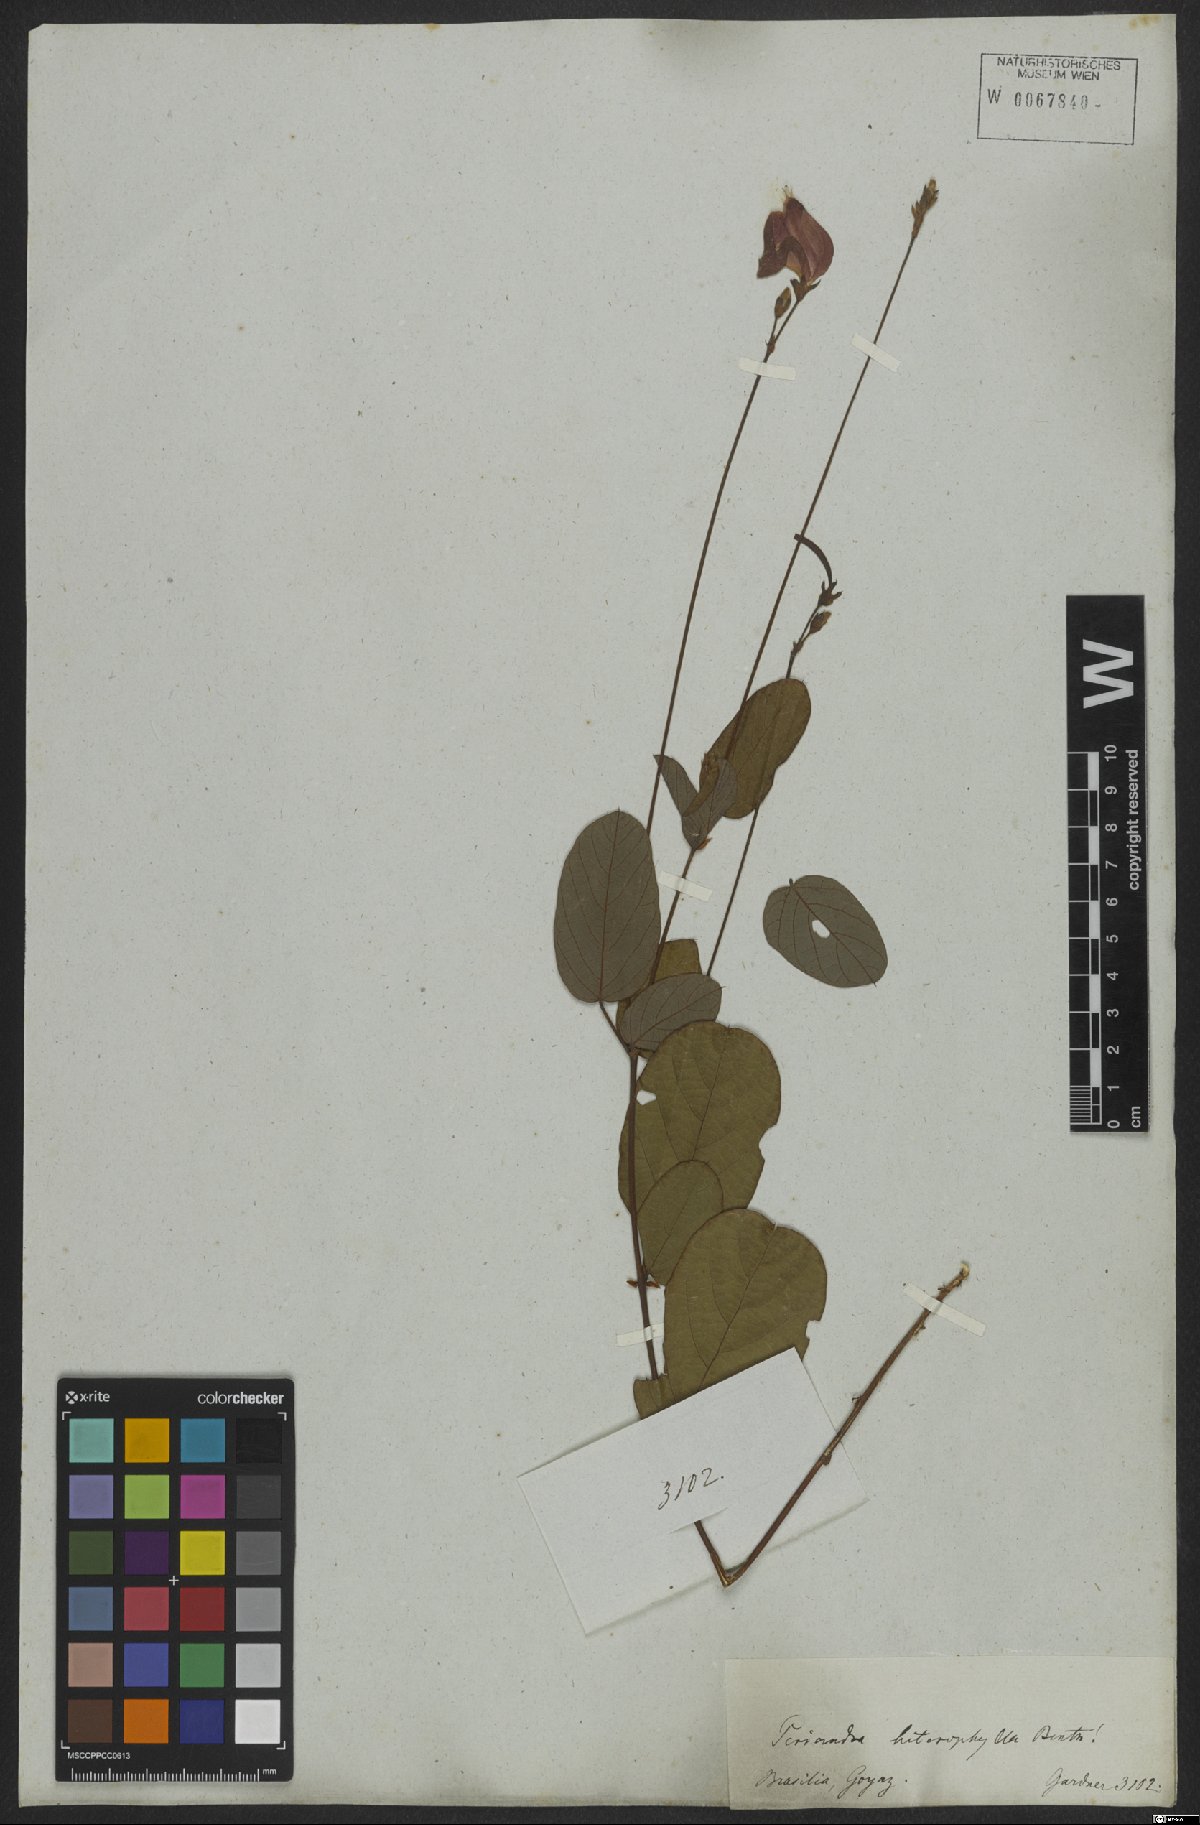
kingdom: Plantae
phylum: Tracheophyta
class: Magnoliopsida
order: Fabales
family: Fabaceae
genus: Periandra
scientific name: Periandra heterophylla
